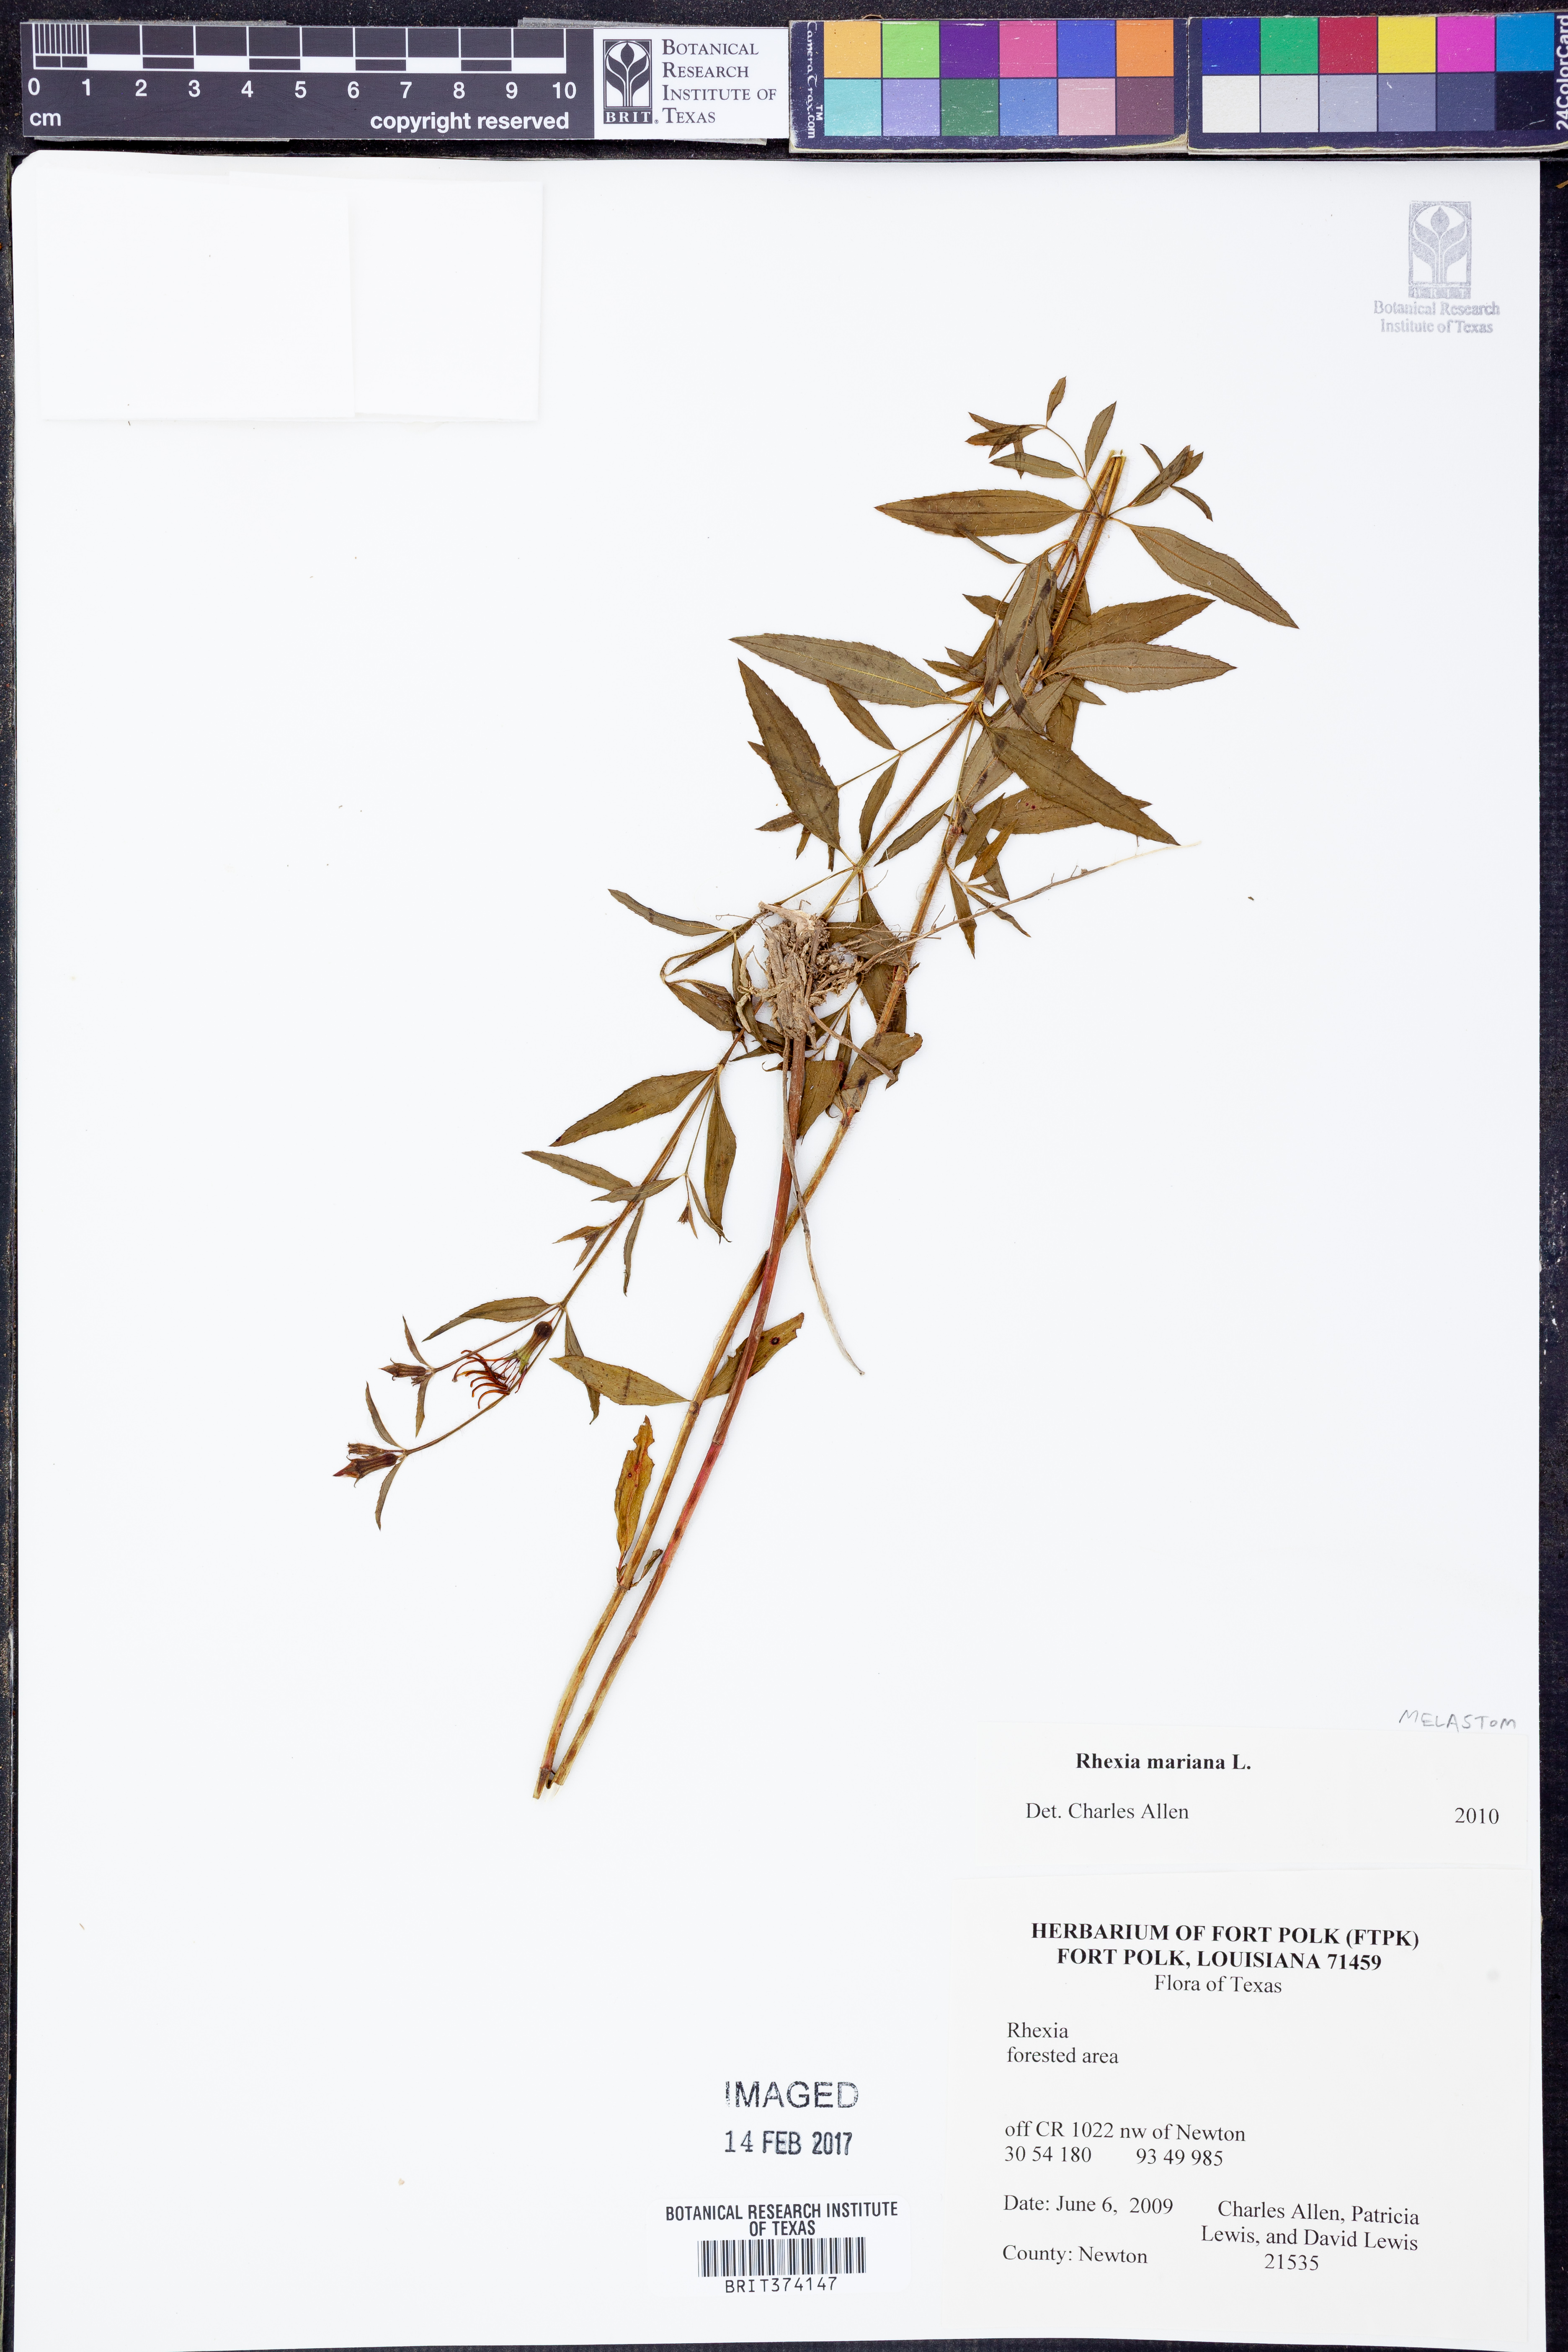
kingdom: Plantae
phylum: Tracheophyta
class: Magnoliopsida
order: Myrtales
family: Melastomataceae
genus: Rhexia
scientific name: Rhexia mariana
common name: Dull meadow-pitcher
